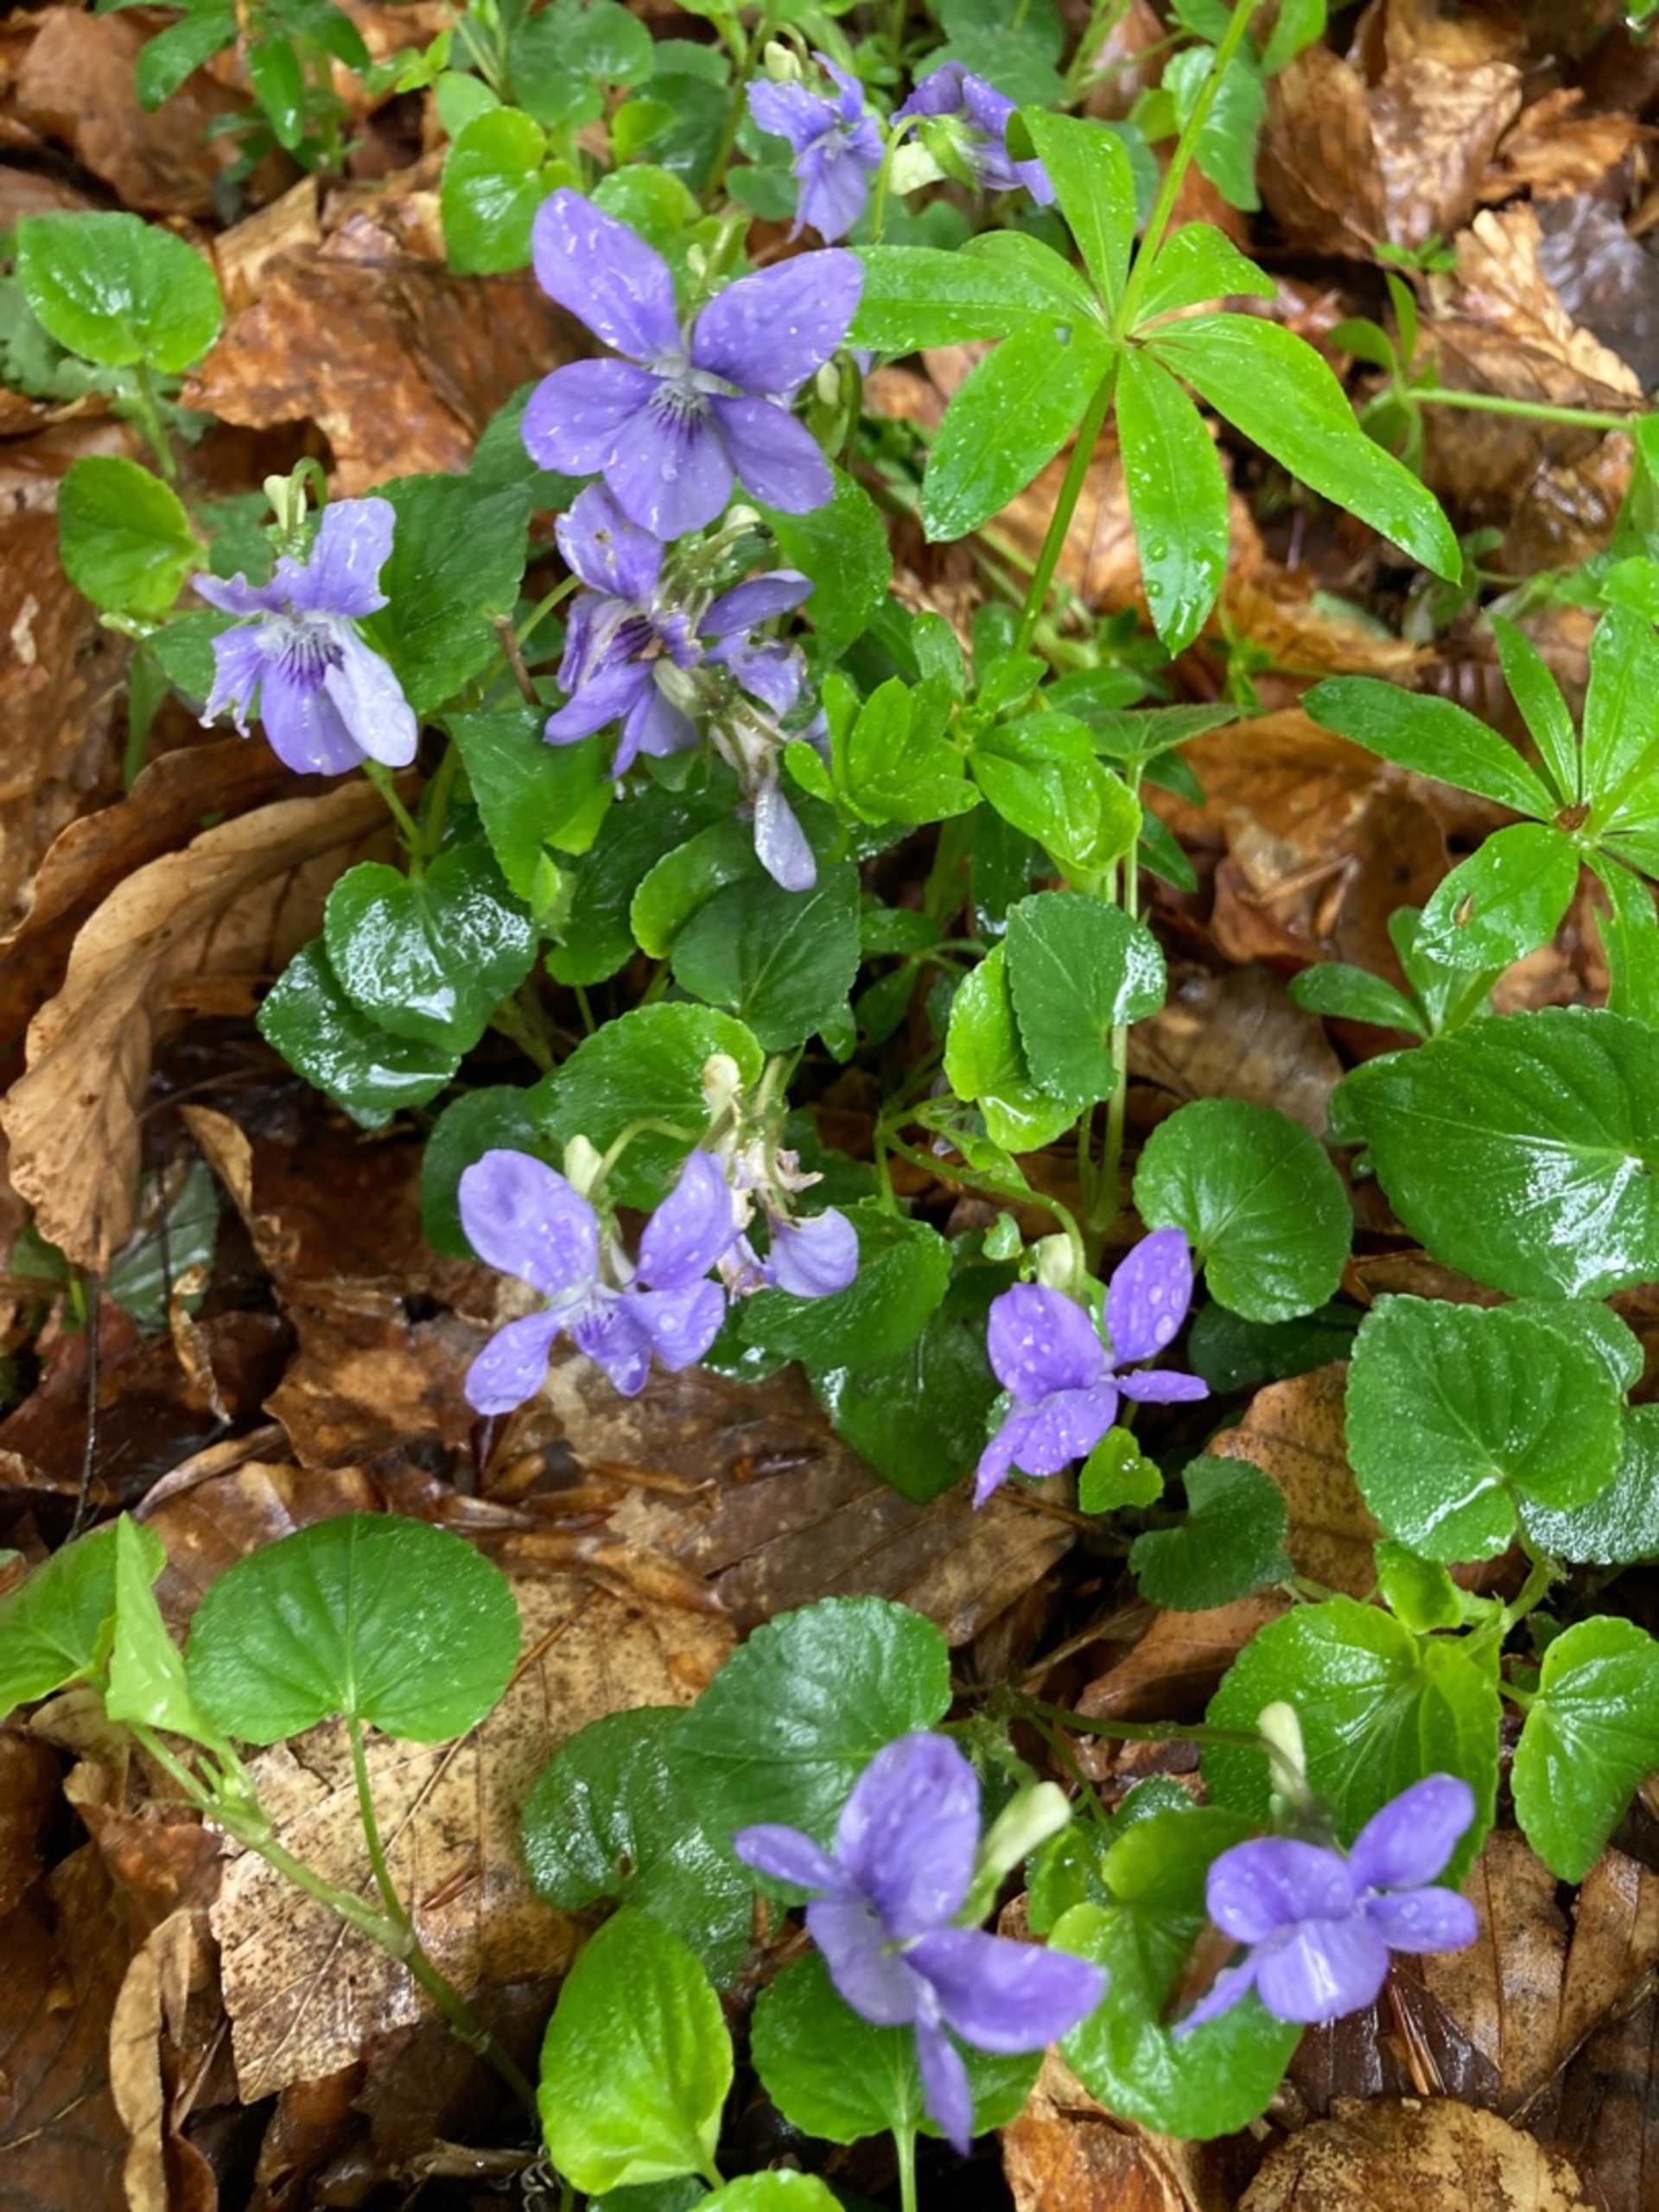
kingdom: Plantae
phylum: Tracheophyta
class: Magnoliopsida
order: Malpighiales
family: Violaceae
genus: Viola
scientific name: Viola riviniana
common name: Krat-viol
